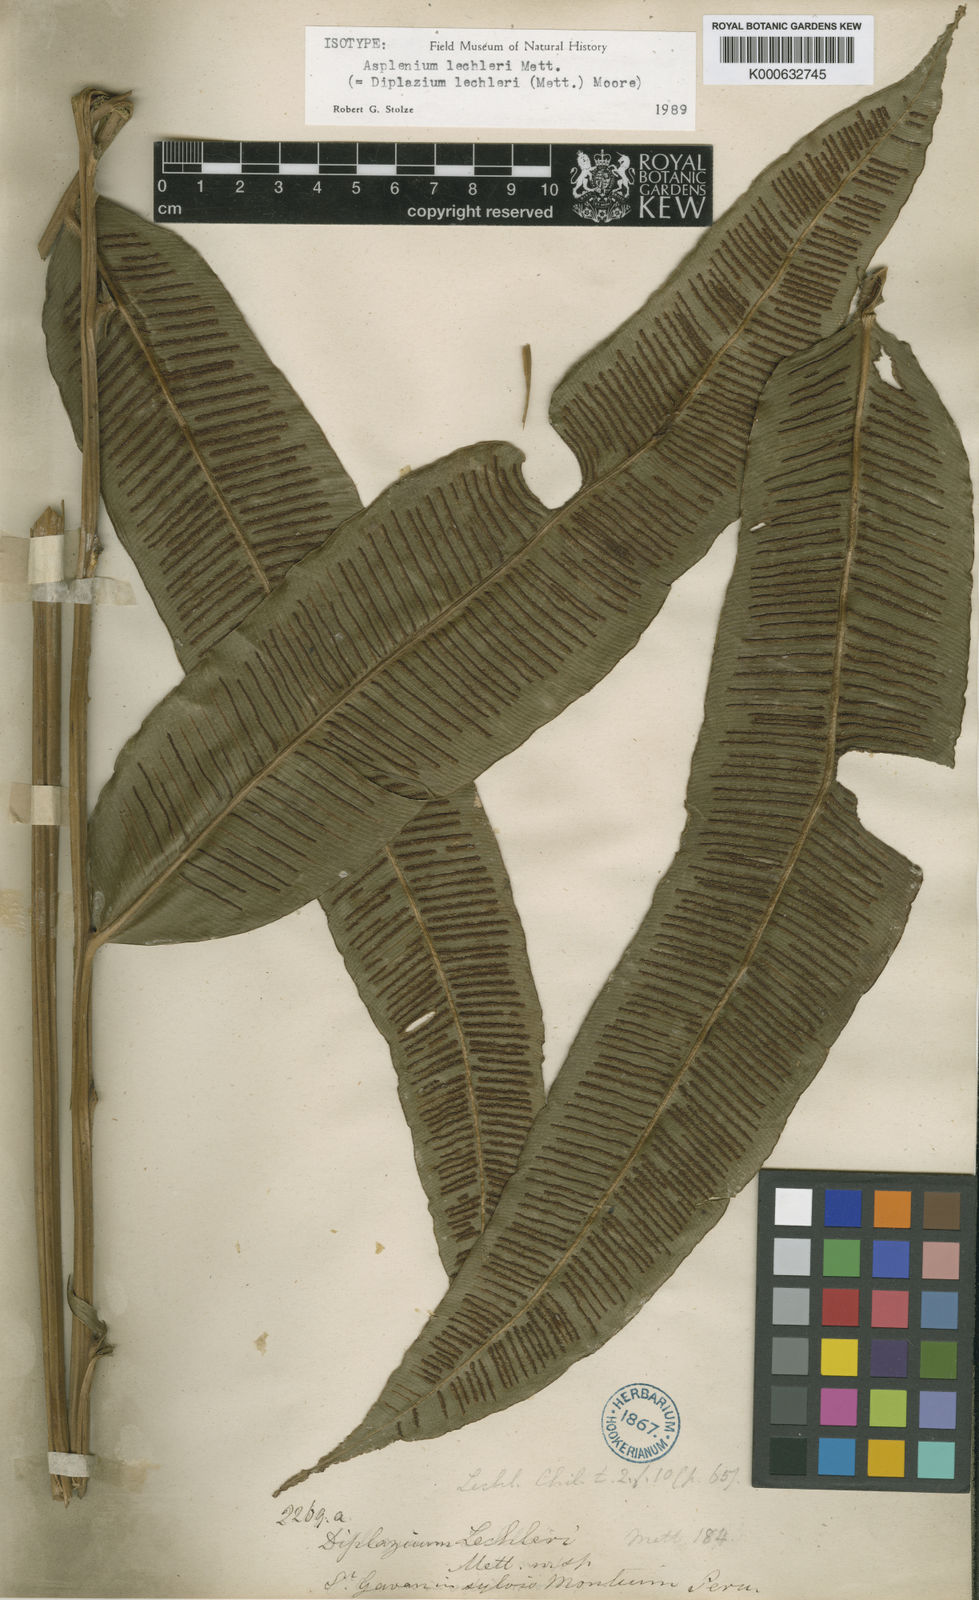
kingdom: Plantae
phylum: Tracheophyta
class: Polypodiopsida
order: Polypodiales
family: Desmophlebiaceae
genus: Desmophlebium
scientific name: Desmophlebium lechleri
